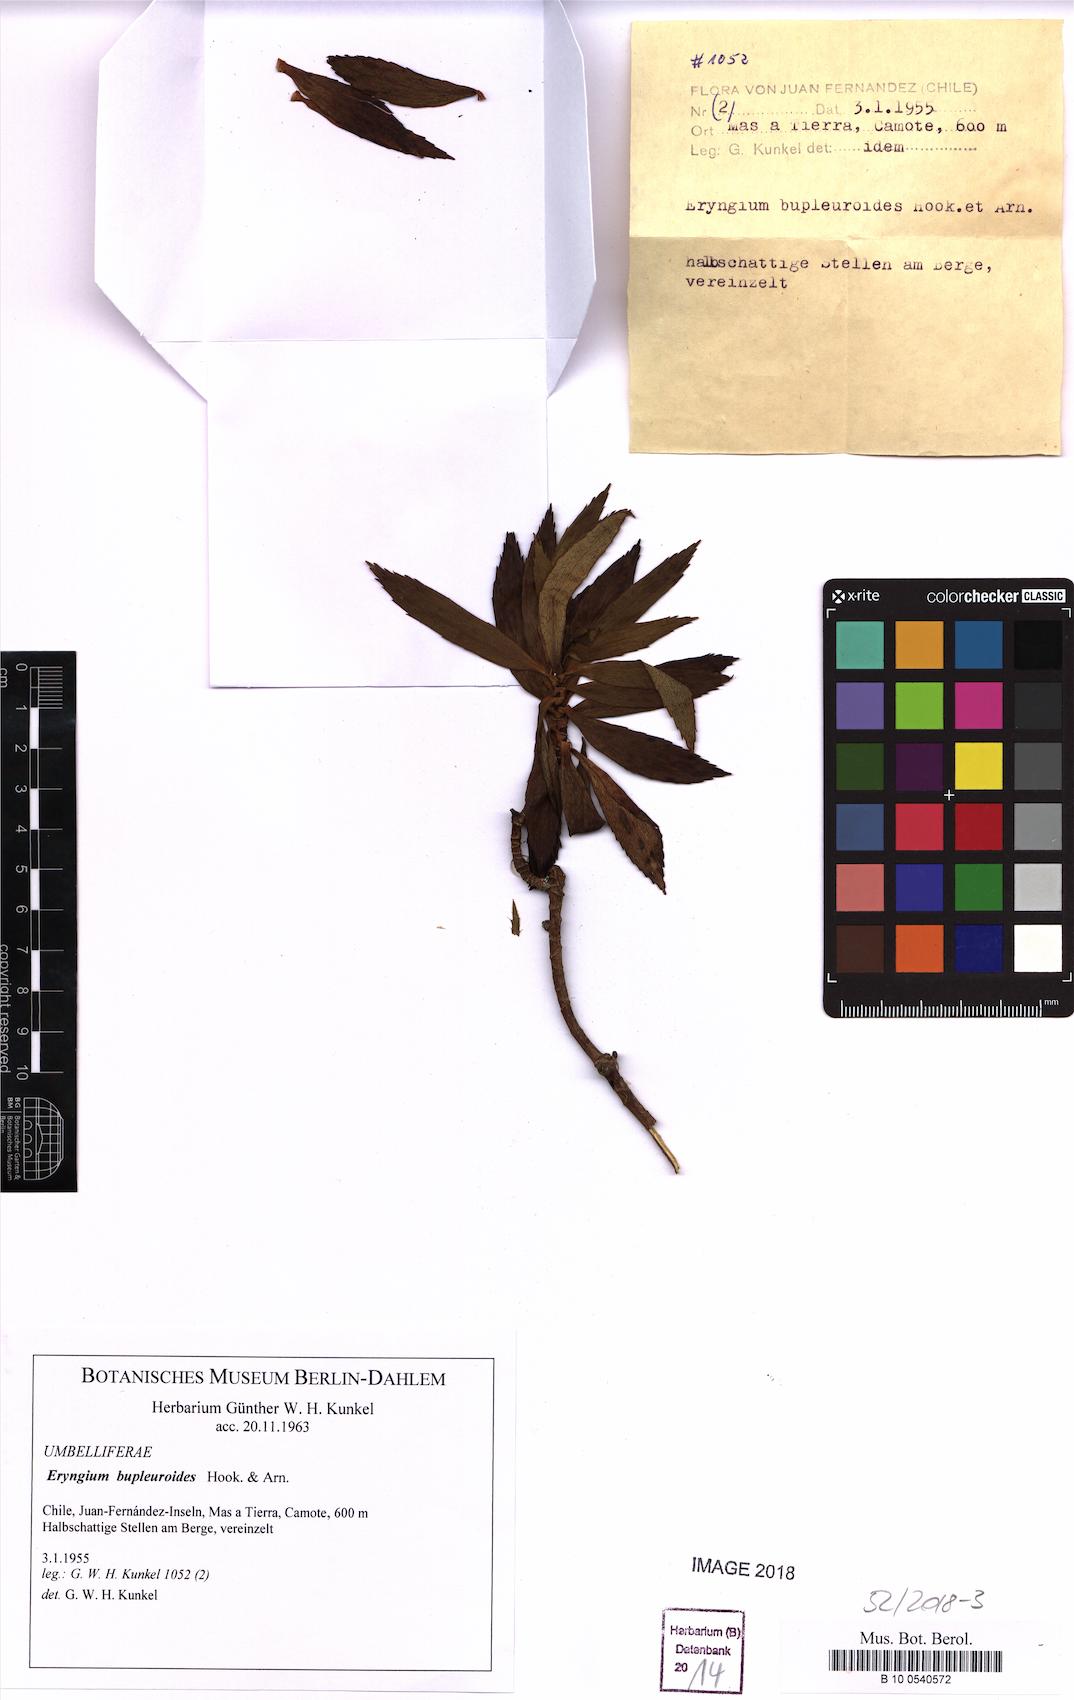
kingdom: Plantae
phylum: Tracheophyta
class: Magnoliopsida
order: Apiales
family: Apiaceae
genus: Eryngium
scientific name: Eryngium bupleuroides
